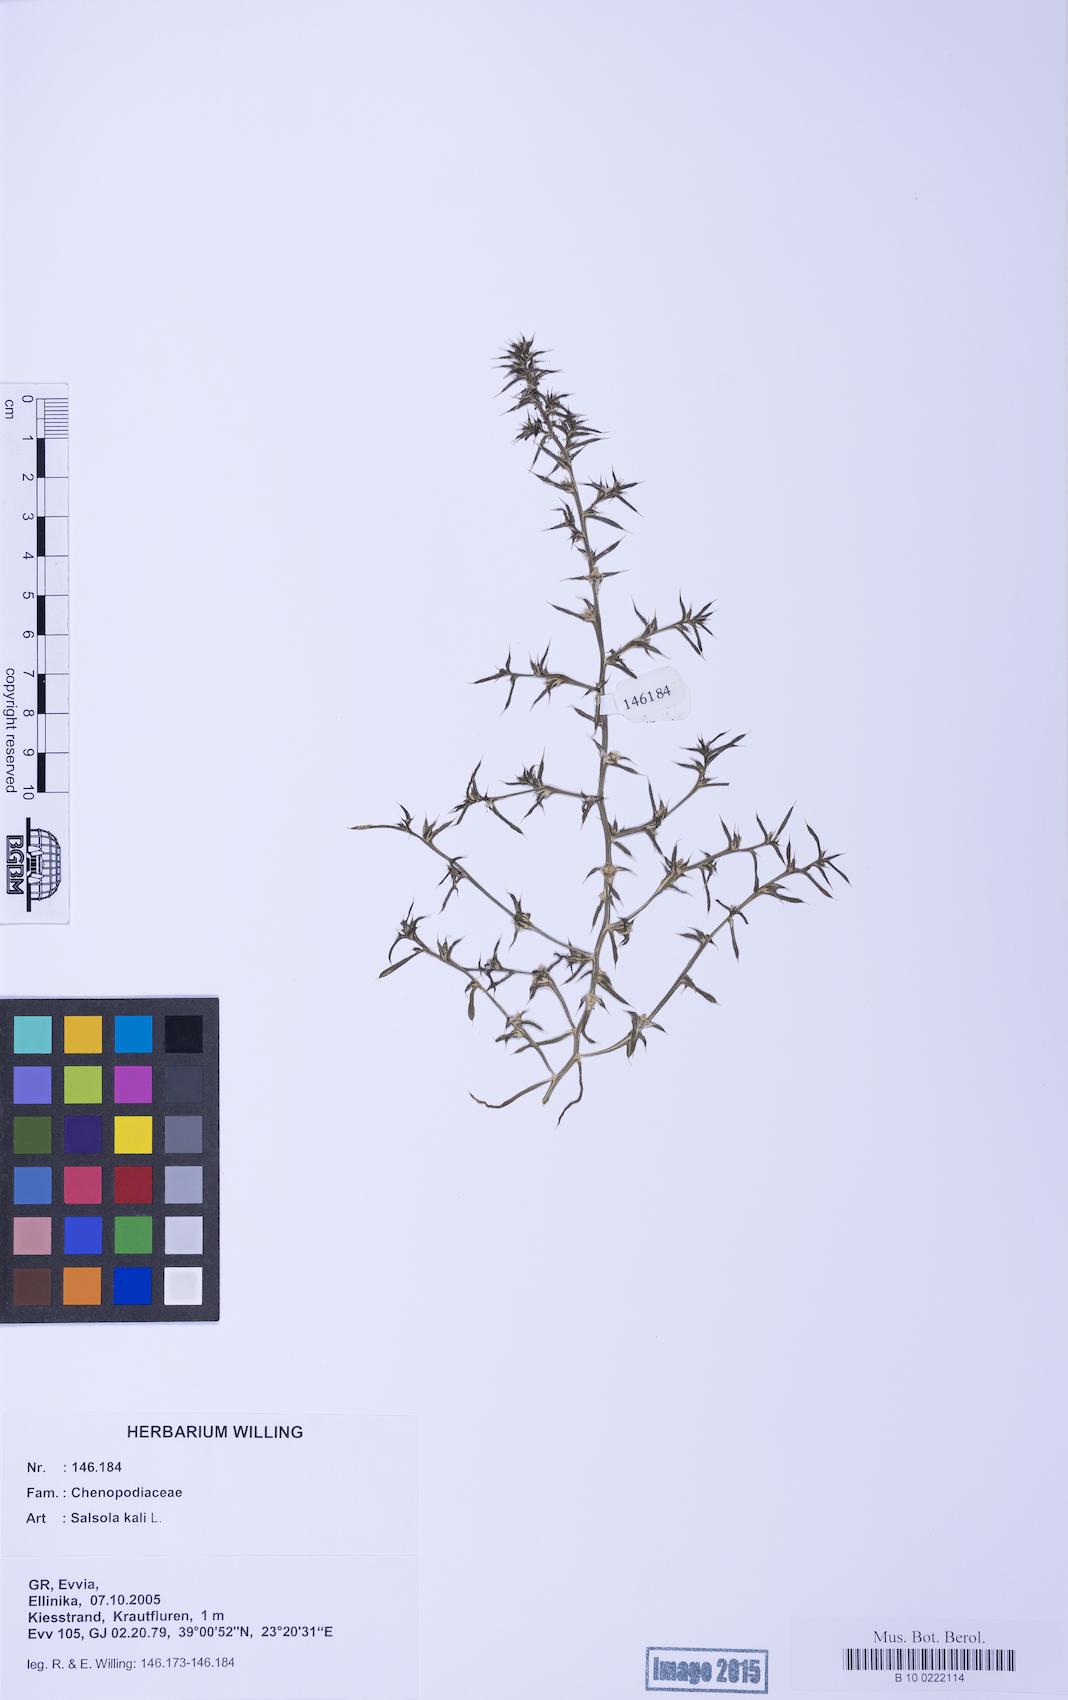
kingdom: Plantae
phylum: Tracheophyta
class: Magnoliopsida
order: Caryophyllales
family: Amaranthaceae
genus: Salsola
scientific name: Salsola kali
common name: Saltwort
